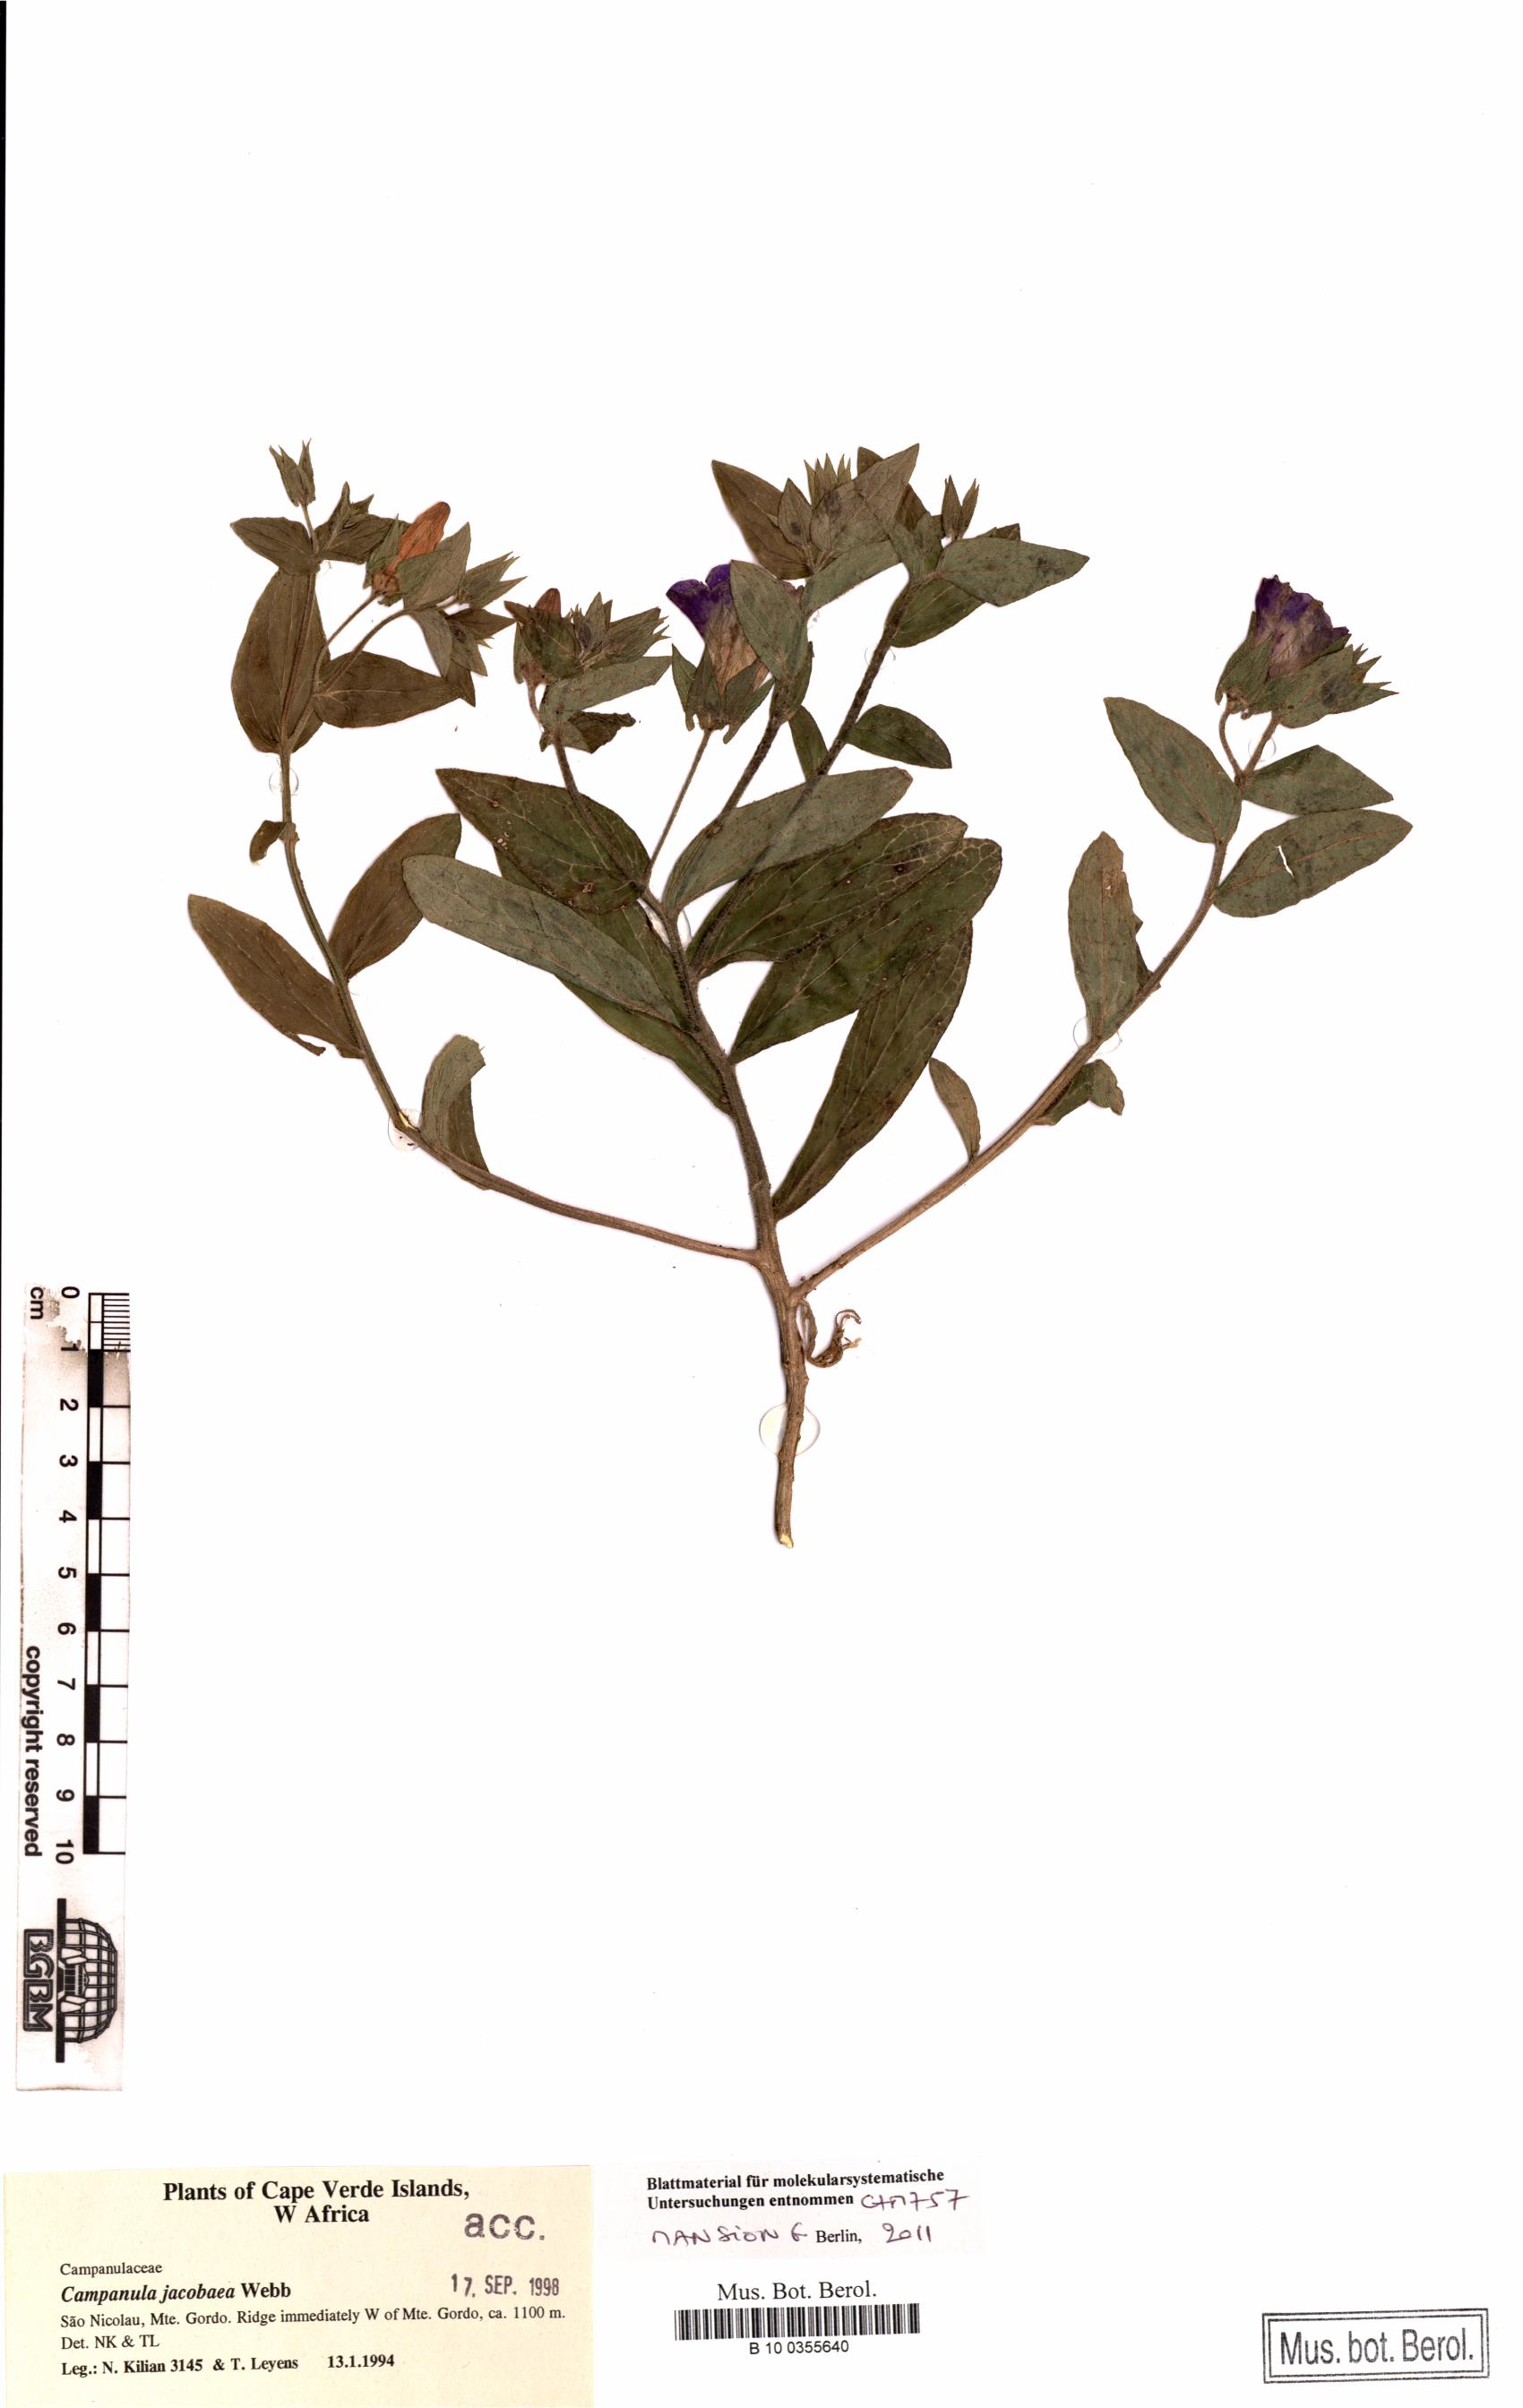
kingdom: Plantae
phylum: Tracheophyta
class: Magnoliopsida
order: Asterales
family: Campanulaceae
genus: Campanula
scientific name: Campanula jacobaea
